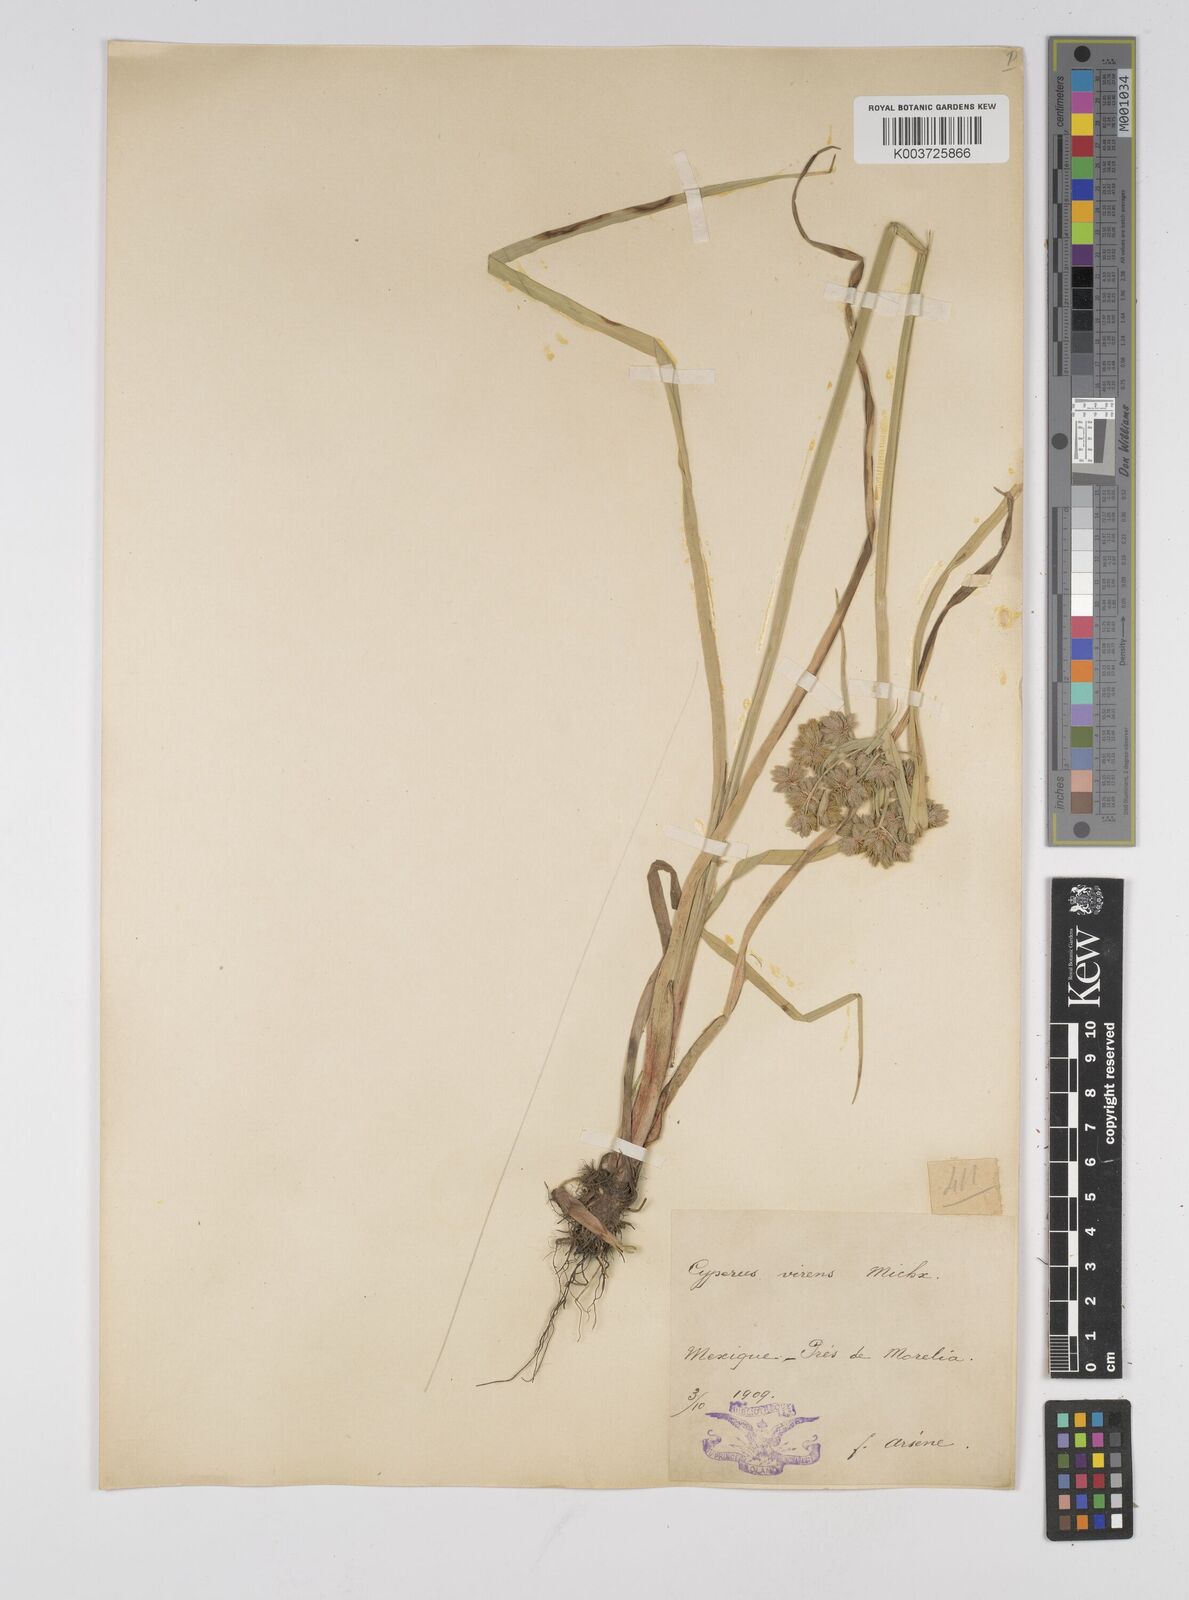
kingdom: Plantae
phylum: Tracheophyta
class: Liliopsida
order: Poales
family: Cyperaceae
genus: Cyperus
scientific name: Cyperus virens
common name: Green flatsedge
